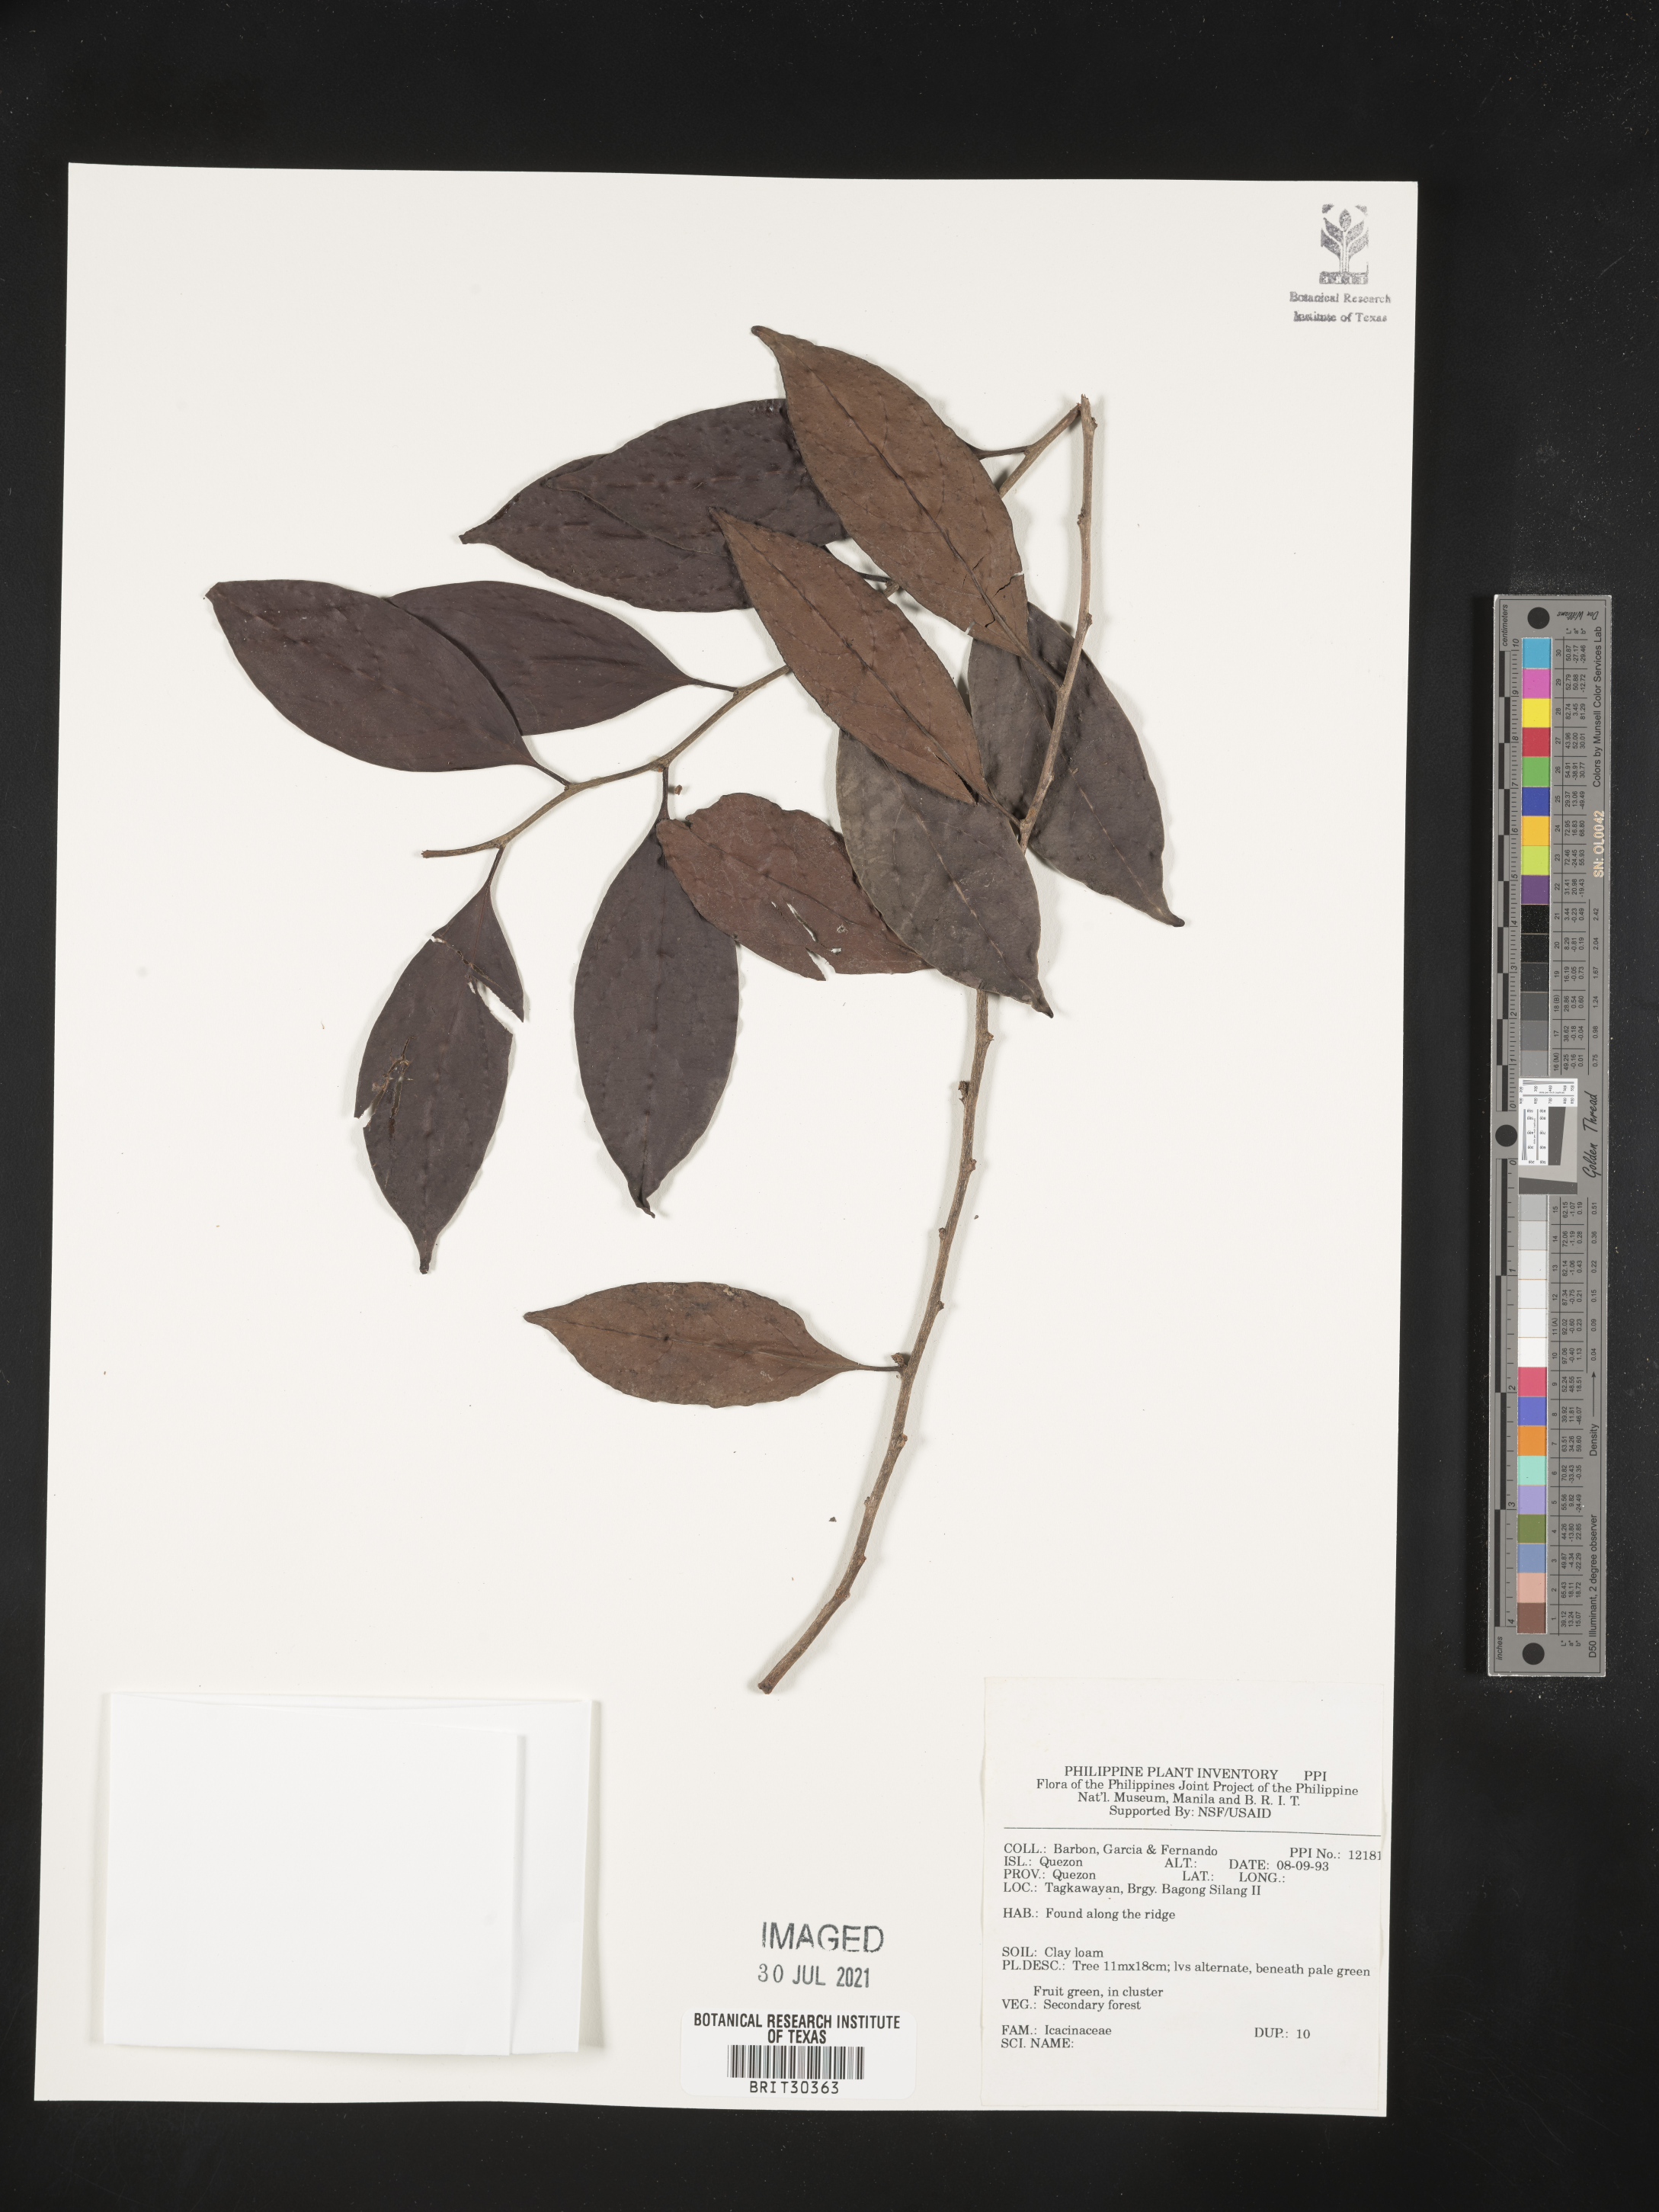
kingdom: Plantae
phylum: Tracheophyta
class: Magnoliopsida
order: Icacinales
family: Icacinaceae
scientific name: Icacinaceae
